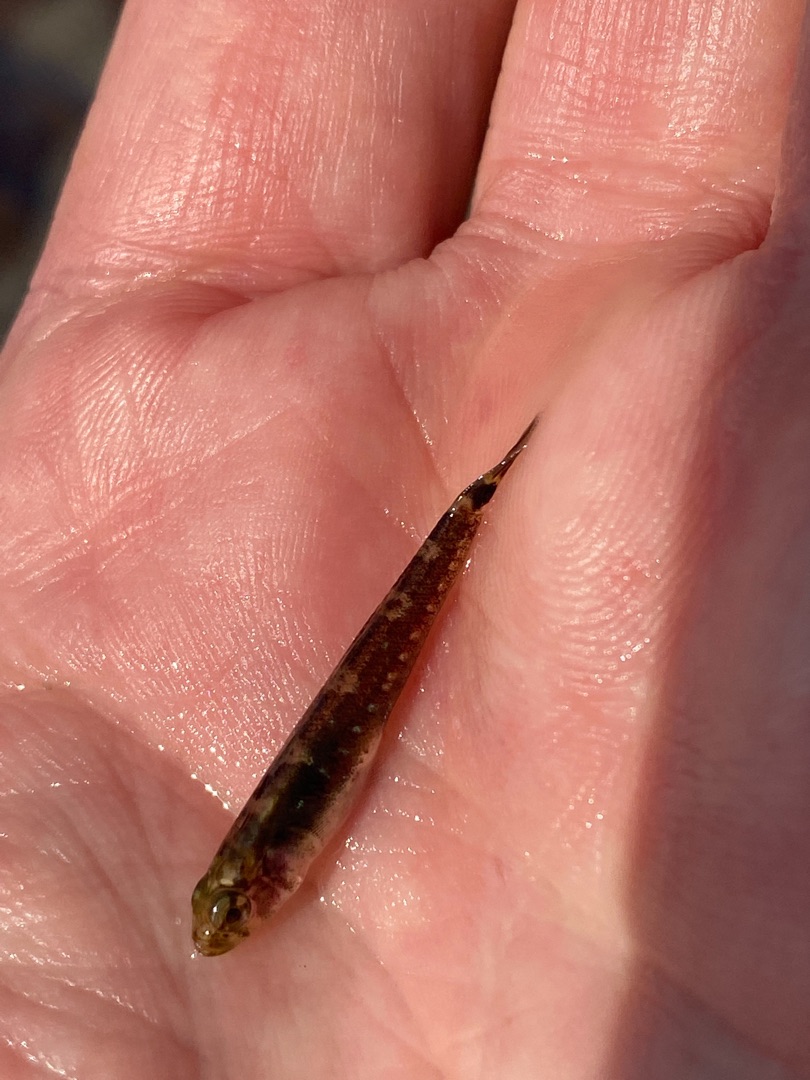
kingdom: Animalia
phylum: Chordata
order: Perciformes
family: Gobiidae
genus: Gobiusculus
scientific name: Gobiusculus flavescens
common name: Toplettet kutling
